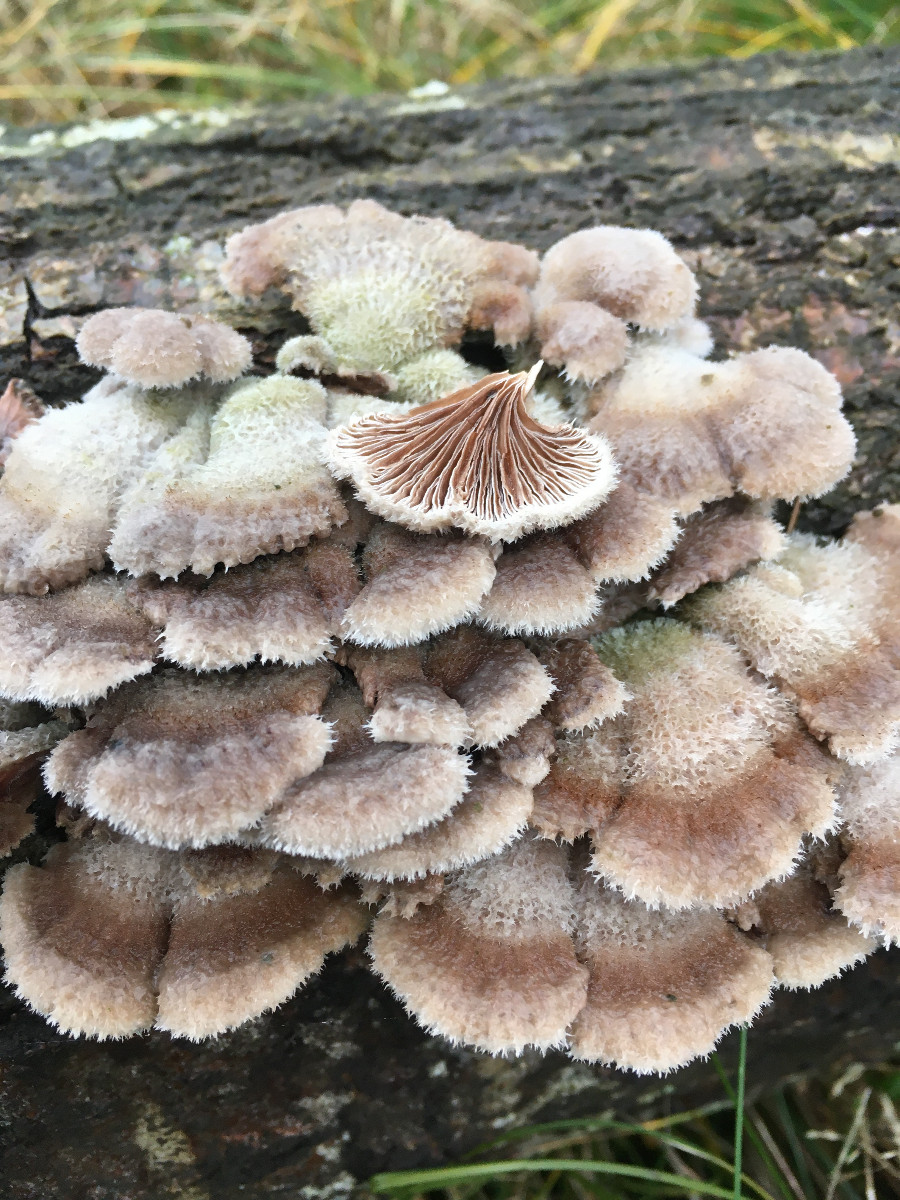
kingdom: Fungi
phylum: Basidiomycota
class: Agaricomycetes
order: Agaricales
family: Schizophyllaceae
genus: Schizophyllum
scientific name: Schizophyllum commune
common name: kløvblad
